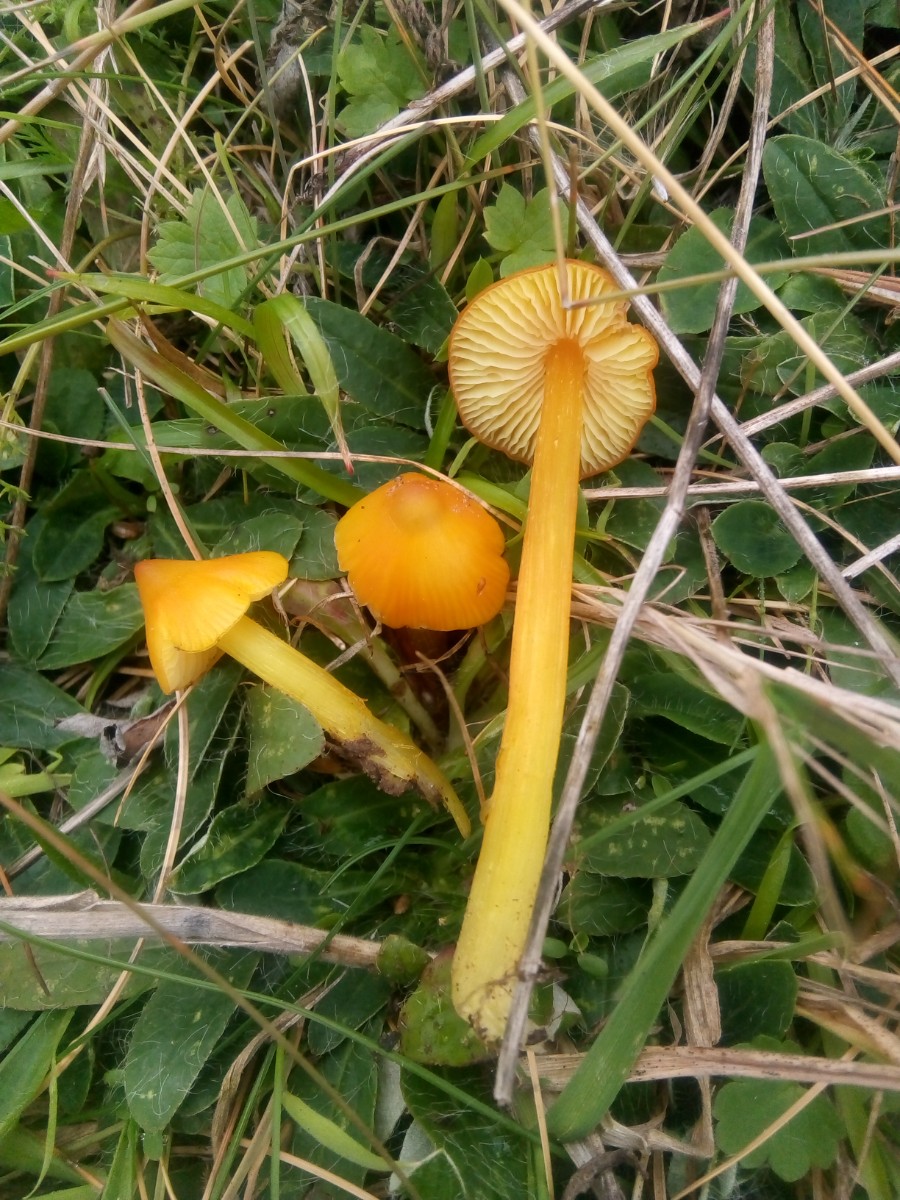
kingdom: Fungi
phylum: Basidiomycota
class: Agaricomycetes
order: Agaricales
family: Hygrophoraceae
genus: Hygrocybe
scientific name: Hygrocybe acutoconica
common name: spidspuklet vokshat
